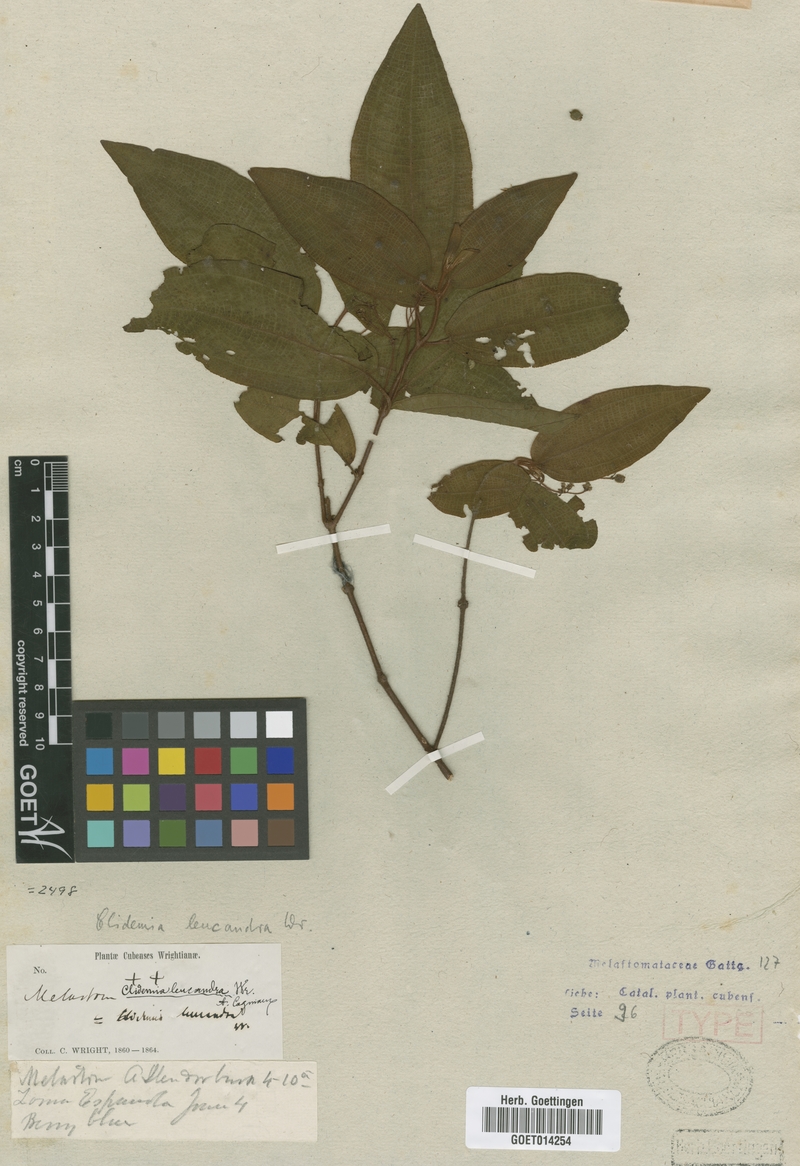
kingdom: Plantae
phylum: Tracheophyta
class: Magnoliopsida
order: Myrtales
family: Melastomataceae
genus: Miconia
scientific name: Miconia leucandra
